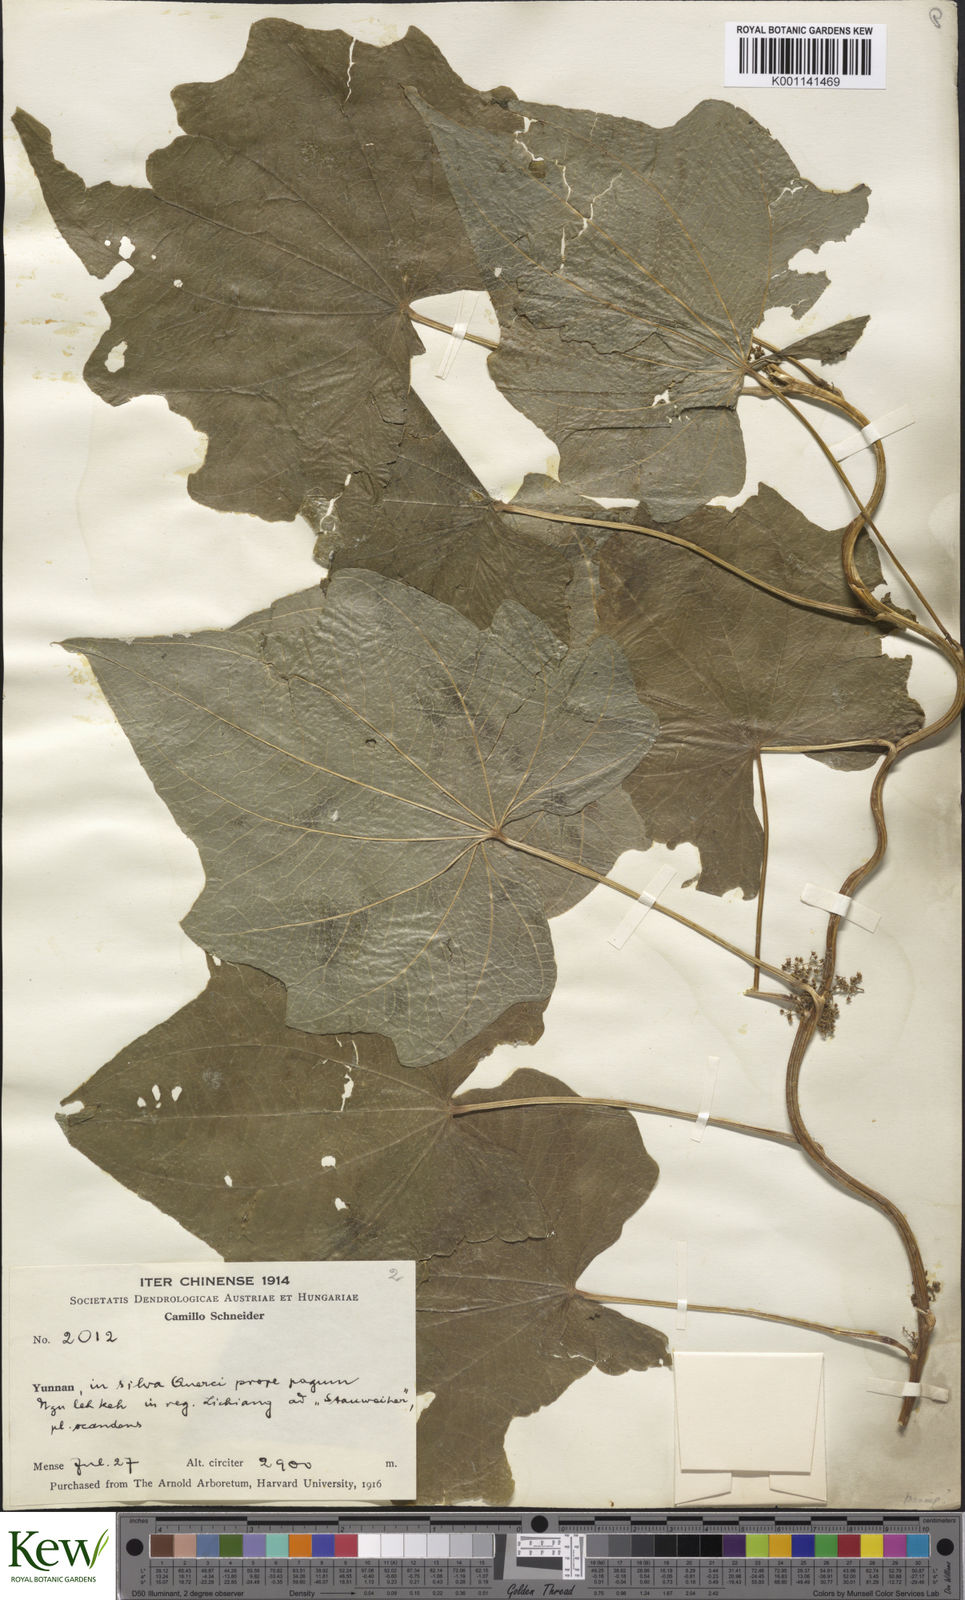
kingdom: Plantae
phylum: Tracheophyta
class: Liliopsida
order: Dioscoreales
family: Dioscoreaceae
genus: Dioscorea
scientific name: Dioscorea althaeoides
